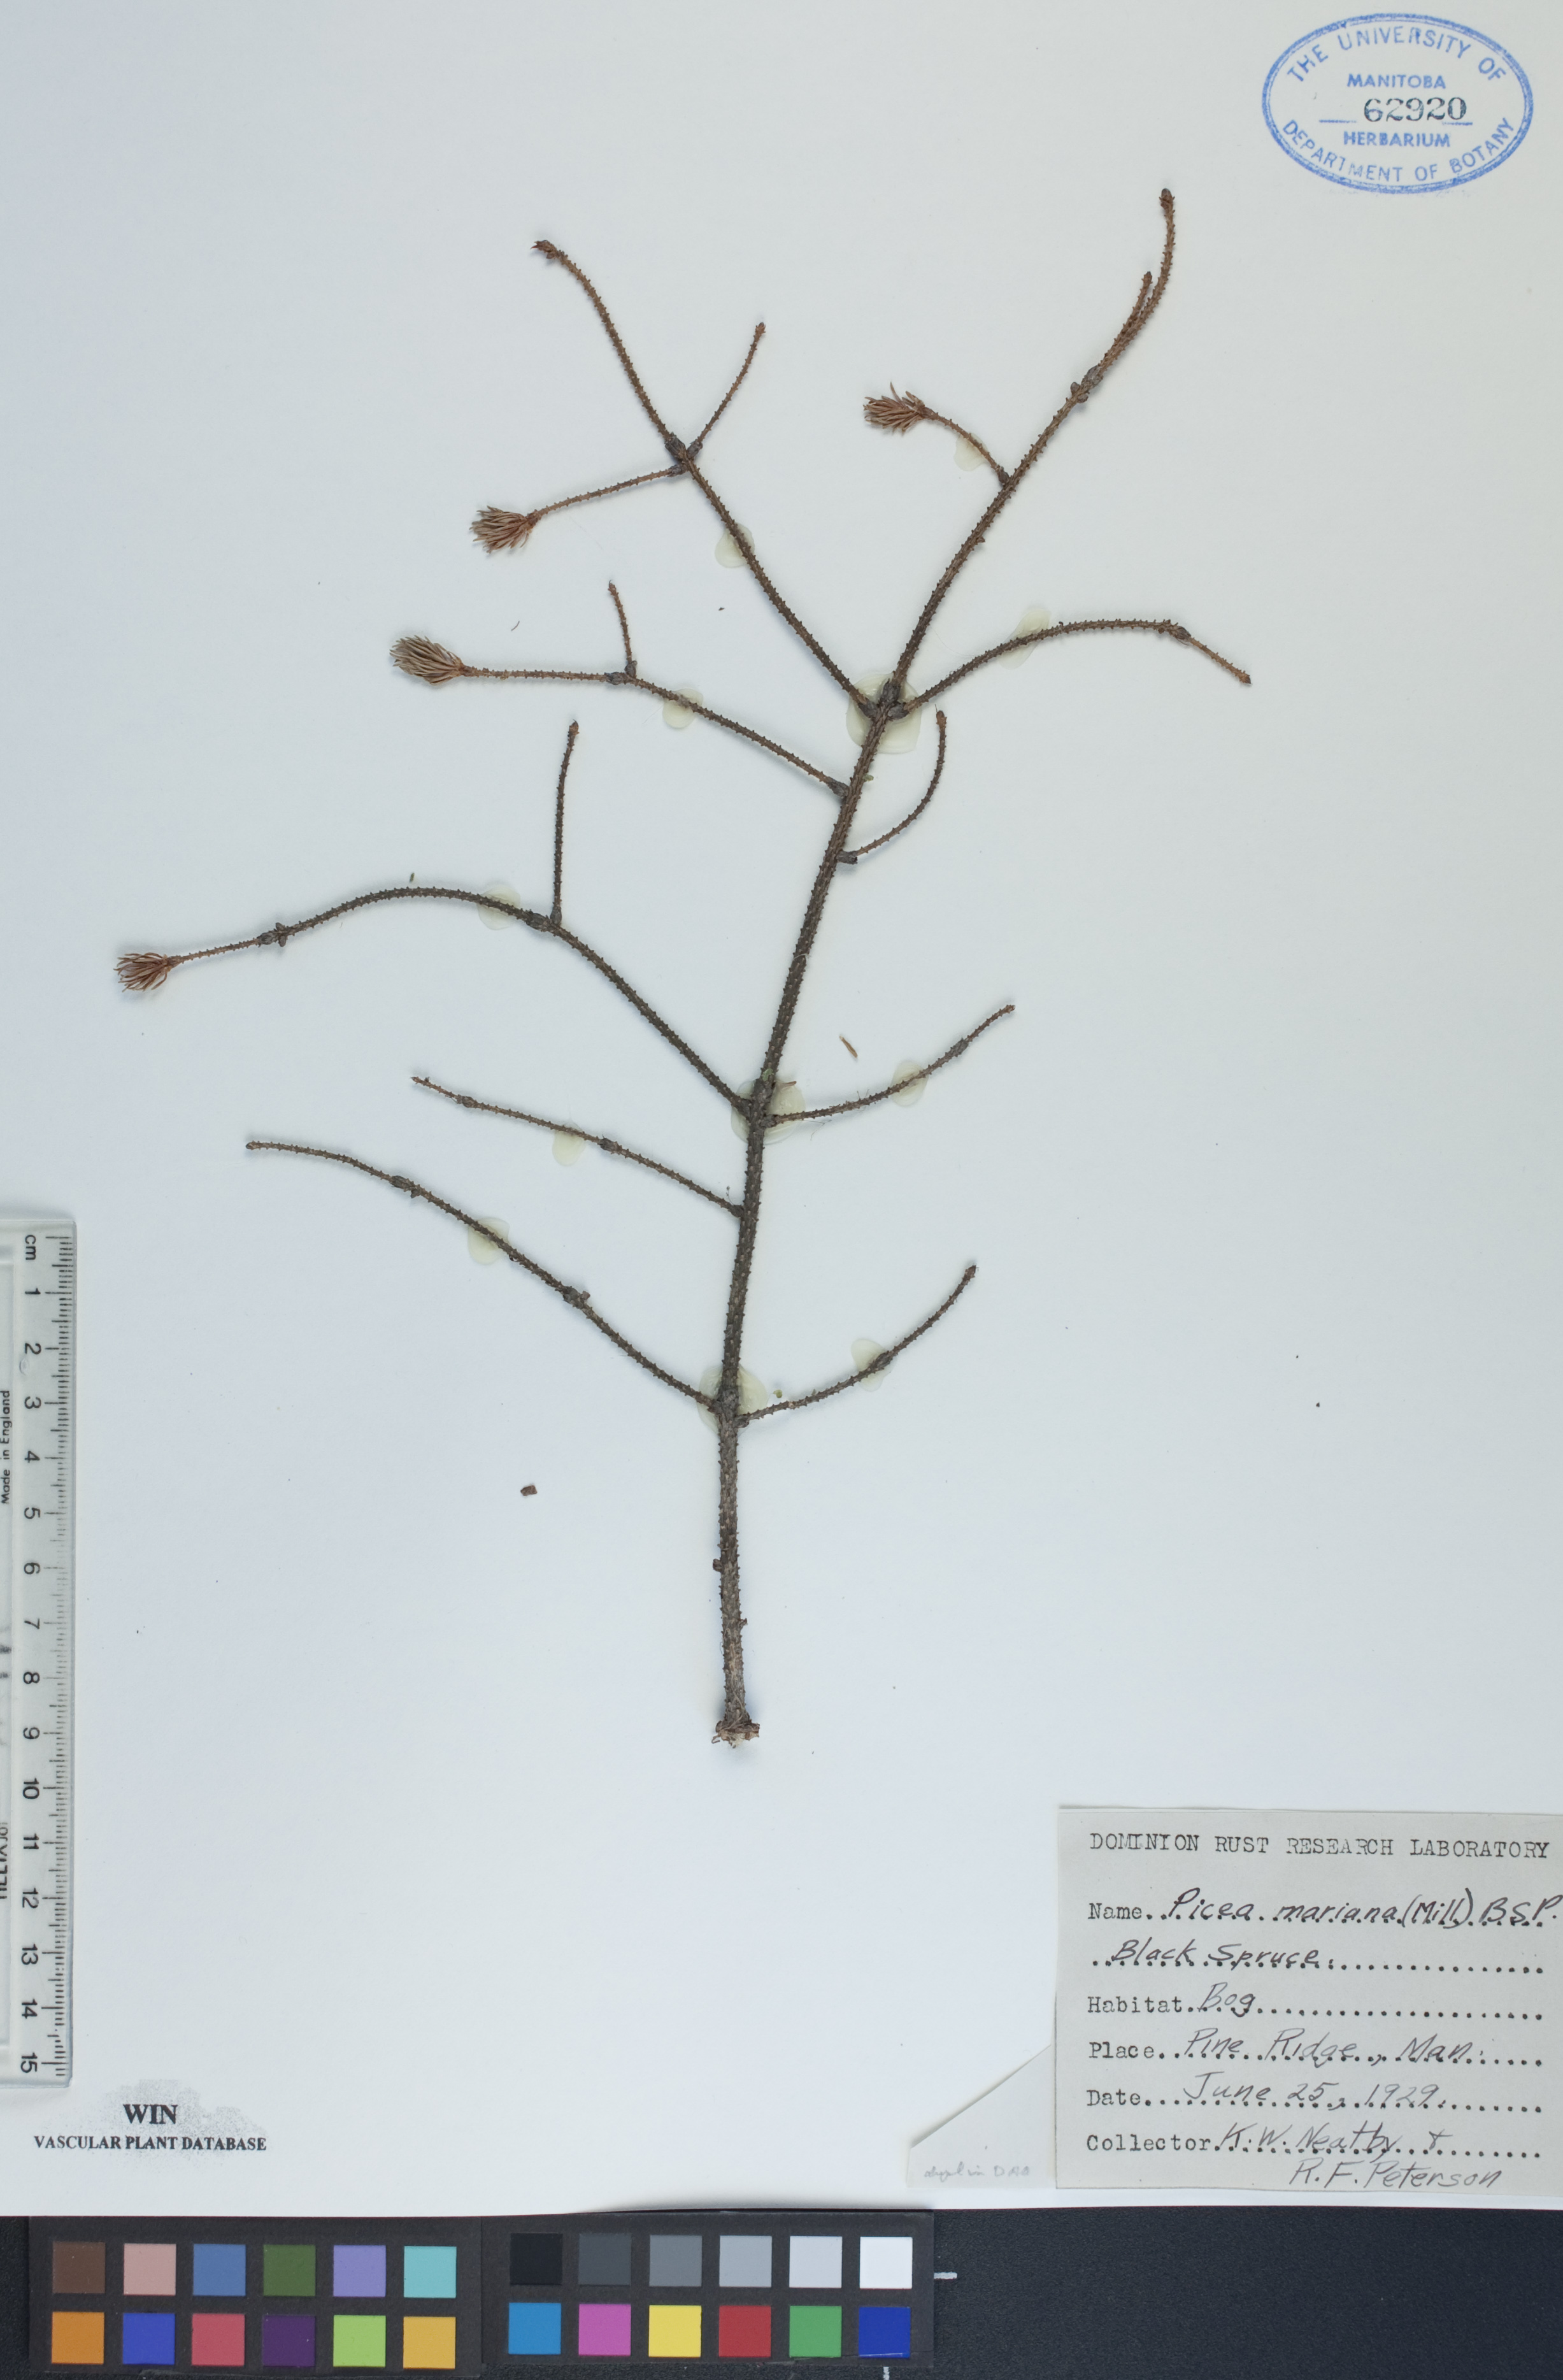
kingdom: Plantae
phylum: Tracheophyta
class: Pinopsida
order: Pinales
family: Pinaceae
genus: Picea
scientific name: Picea mariana
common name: Black spruce
